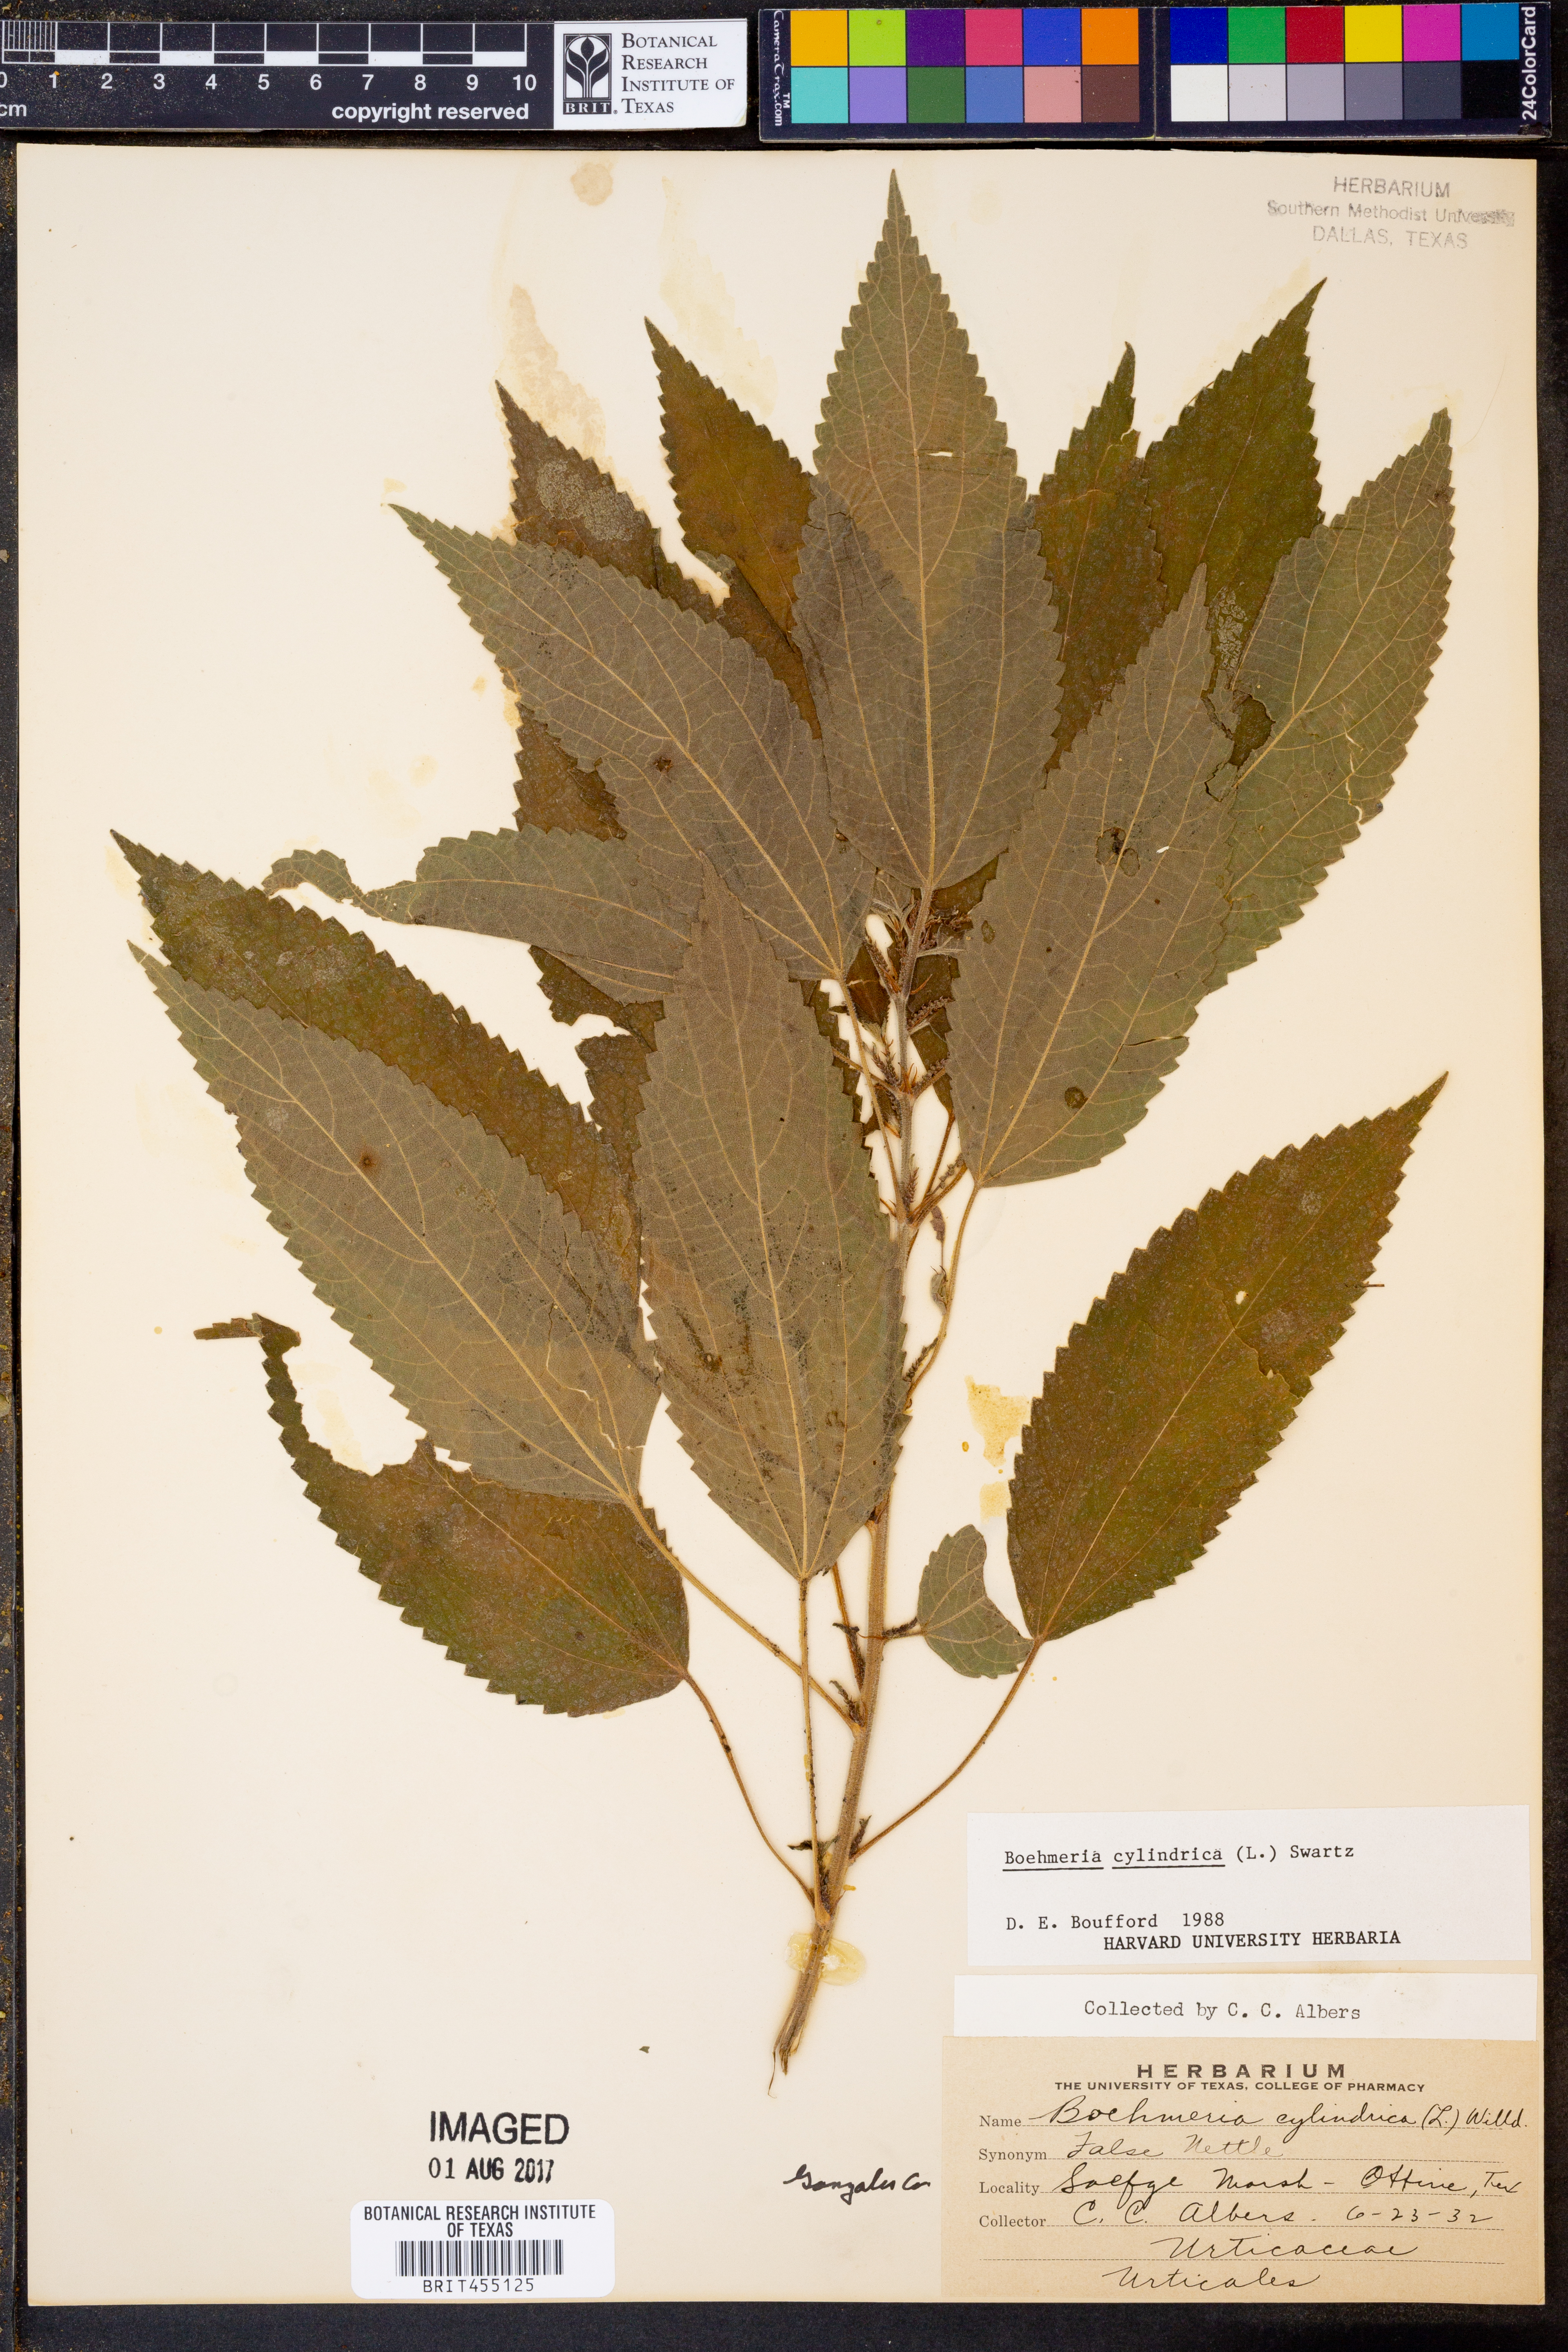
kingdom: Plantae
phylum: Tracheophyta
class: Magnoliopsida
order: Rosales
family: Urticaceae
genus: Boehmeria
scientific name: Boehmeria cylindrica
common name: Bog-hemp
